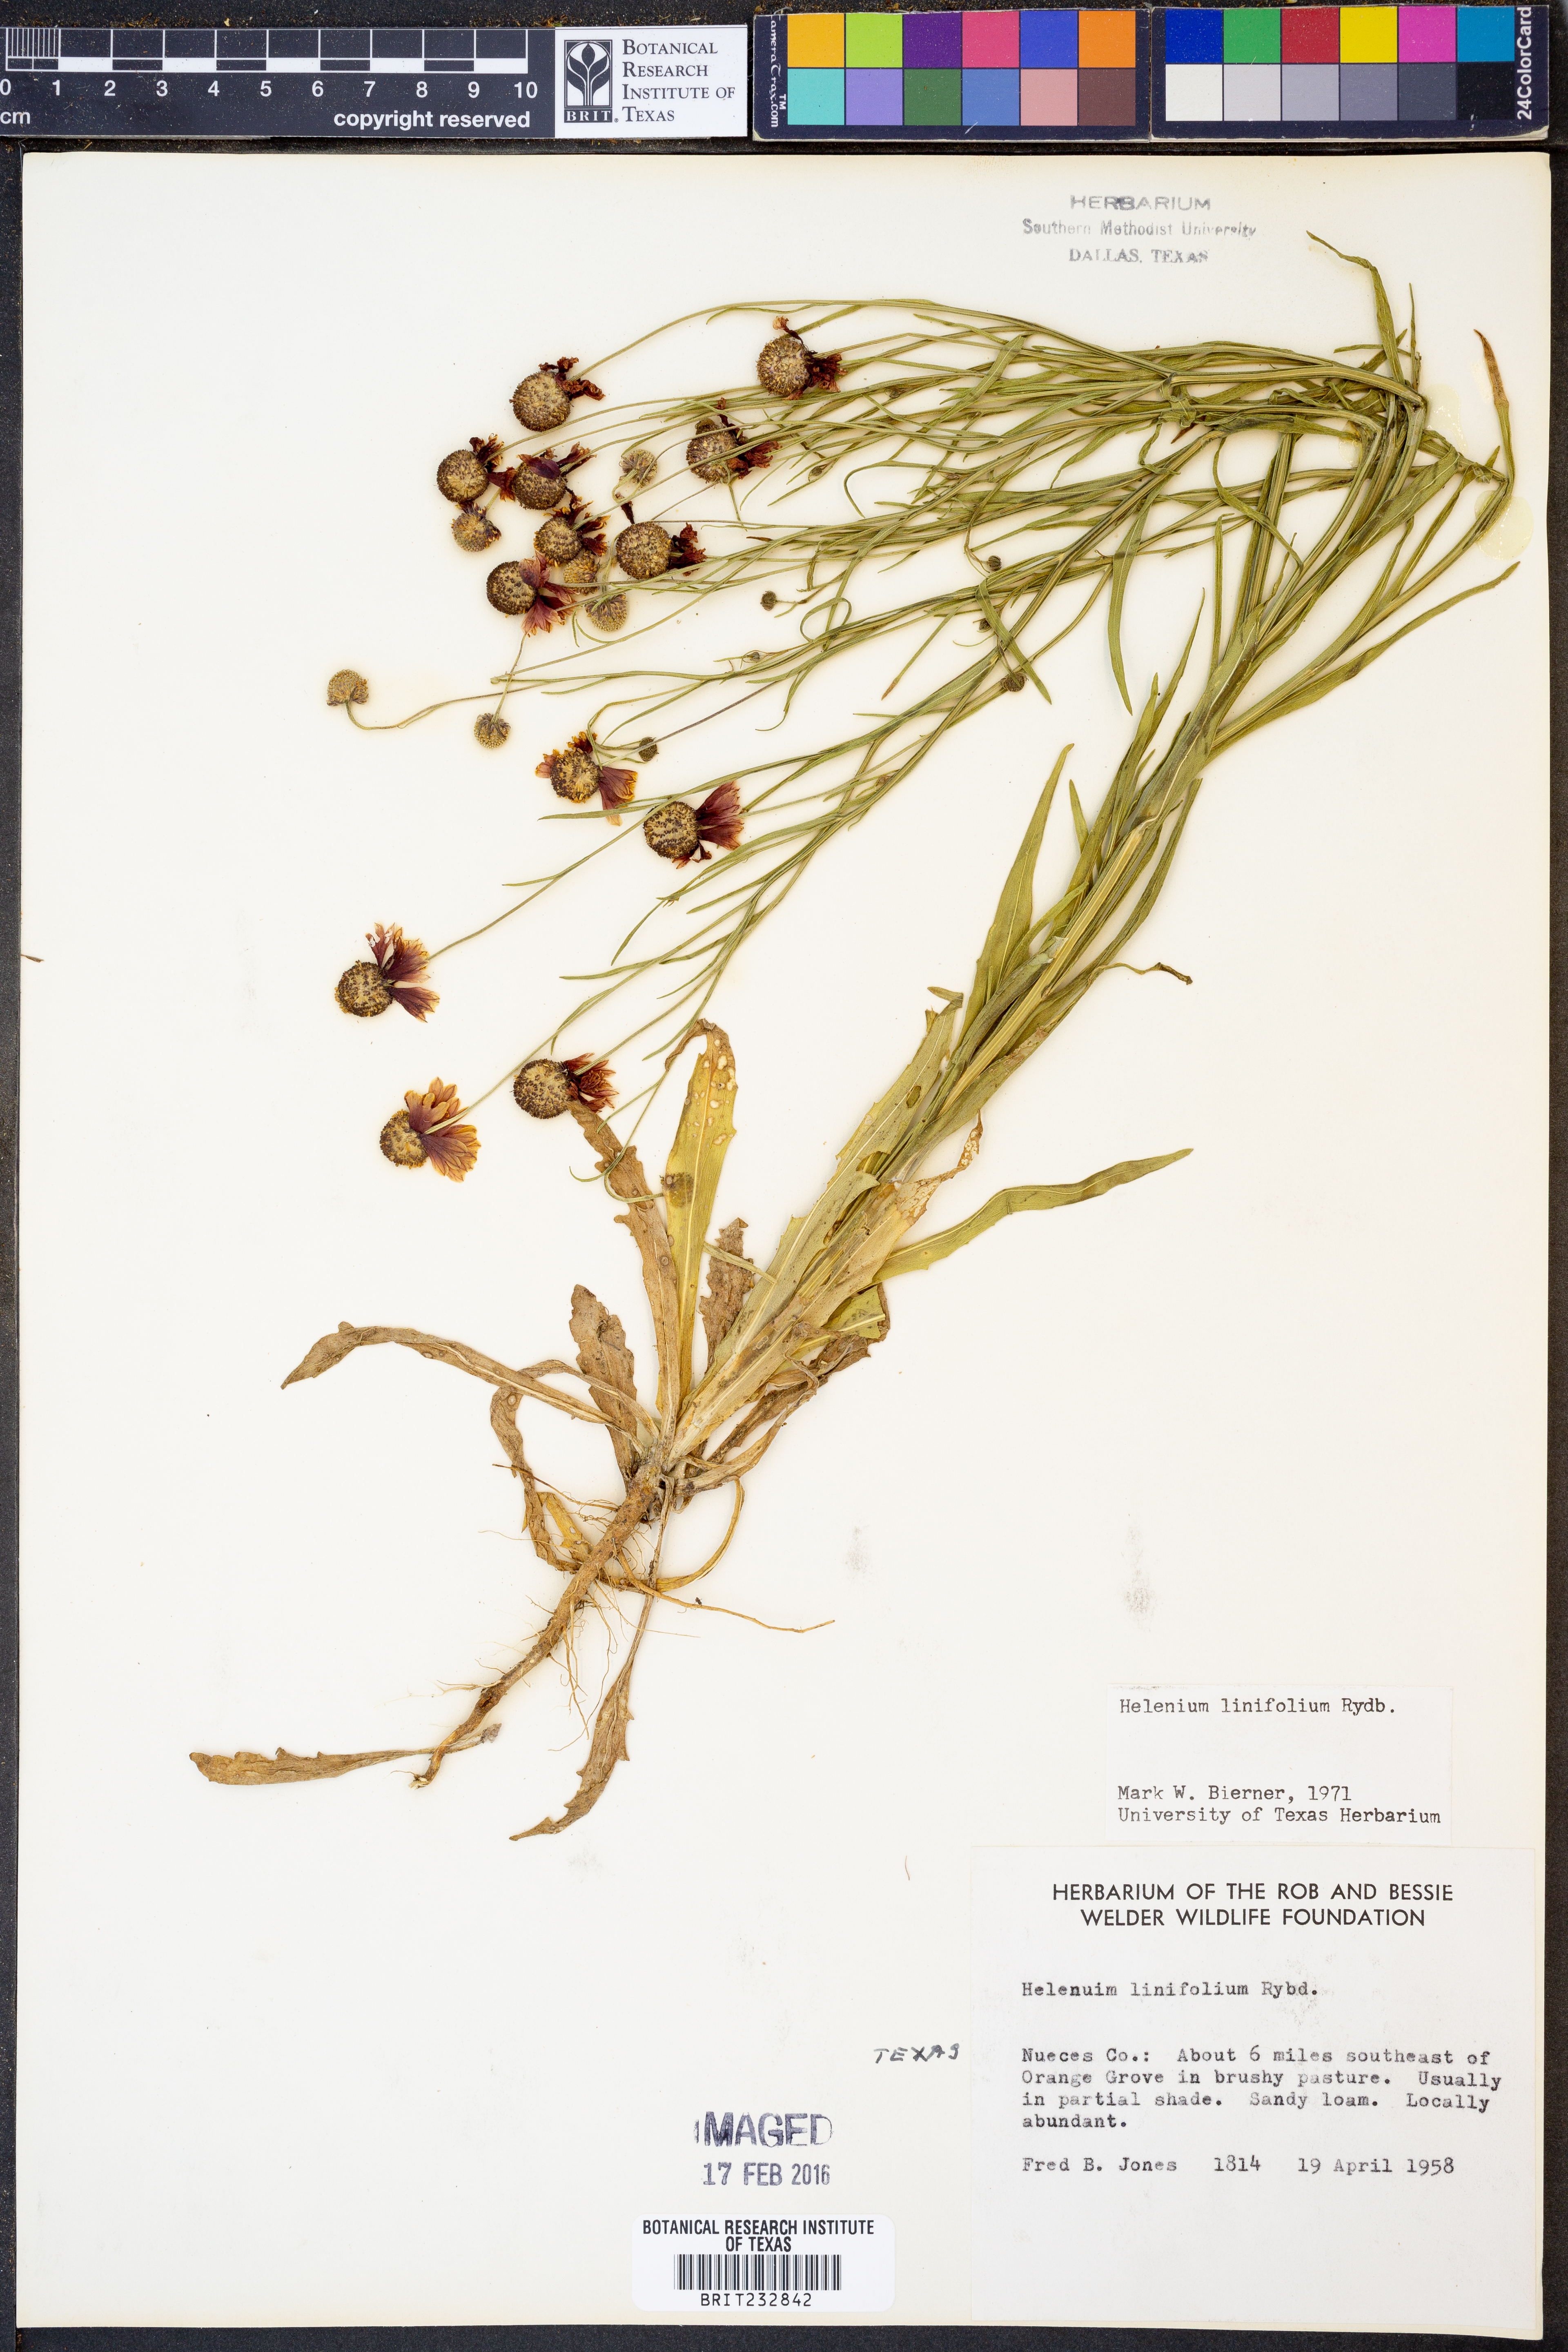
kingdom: Plantae
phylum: Tracheophyta
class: Magnoliopsida
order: Asterales
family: Asteraceae
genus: Helenium
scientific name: Helenium linifolium
